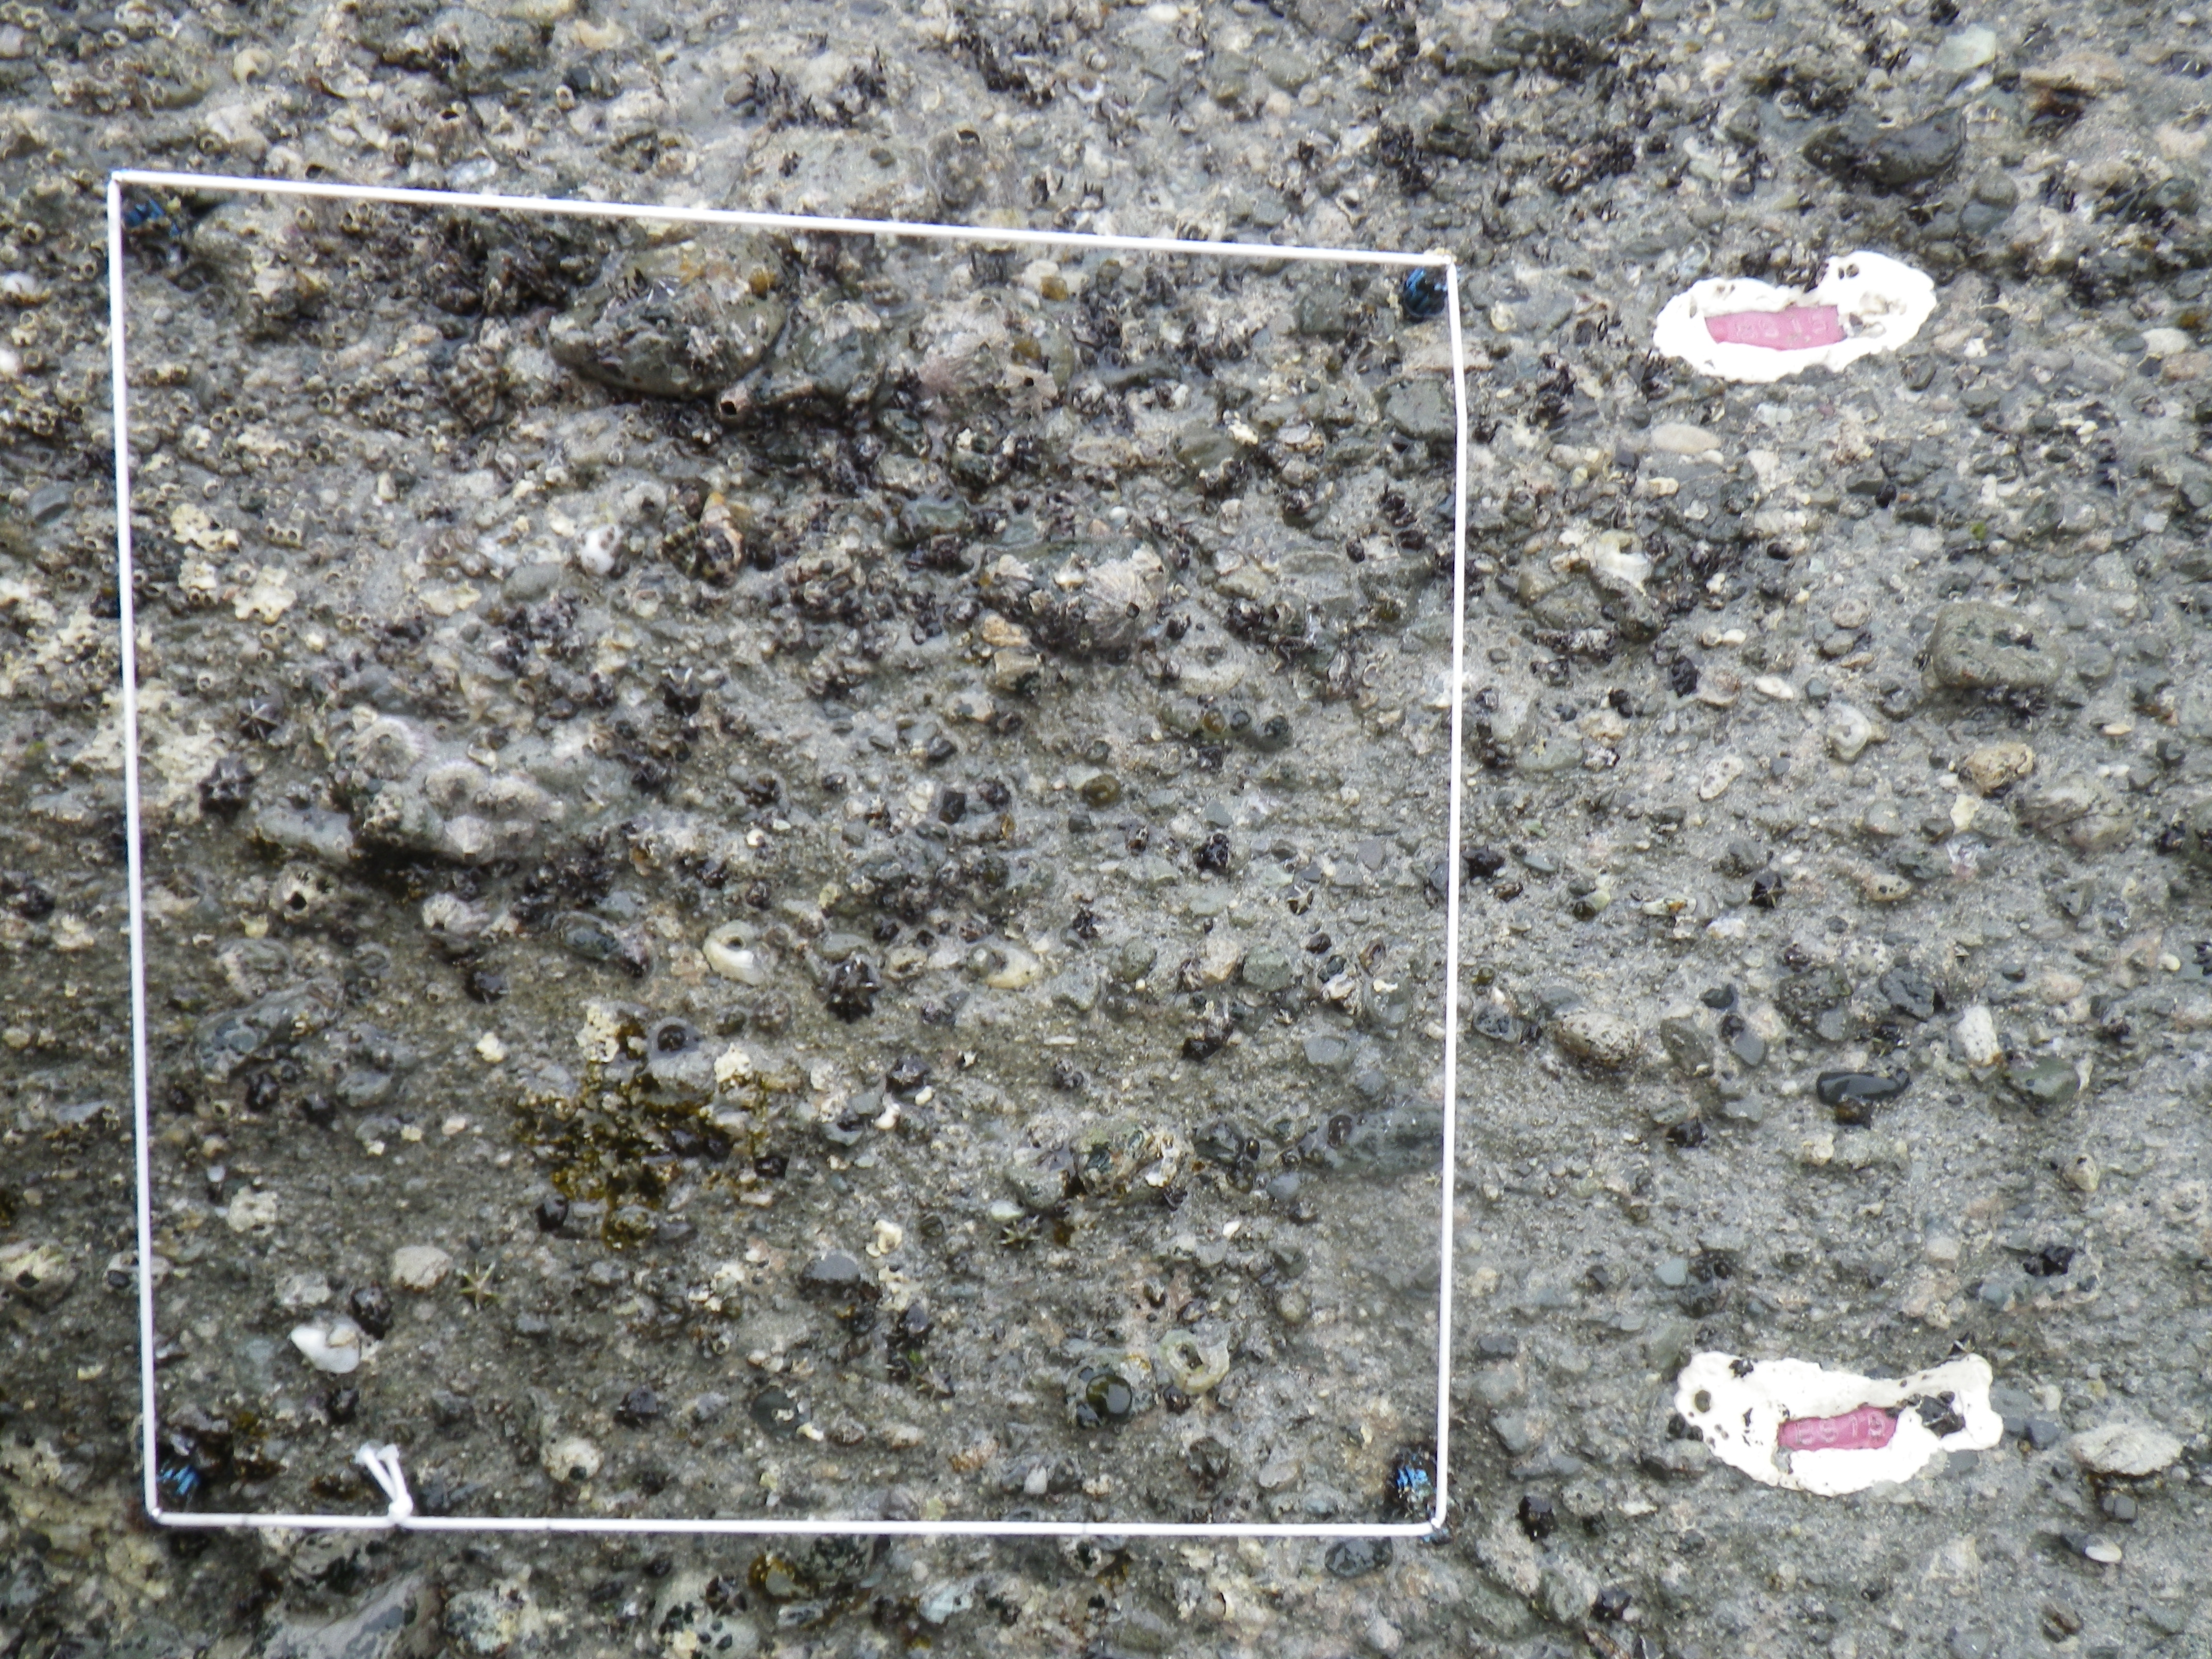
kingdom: Animalia
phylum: Arthropoda
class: Maxillopoda
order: Sessilia
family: Chthamalidae
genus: Chthamalus
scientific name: Chthamalus challengeri
